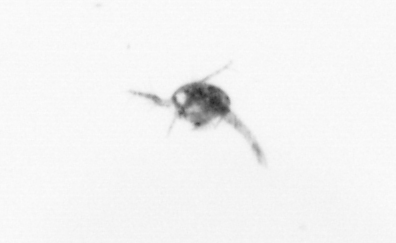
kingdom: Animalia
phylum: Arthropoda
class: Copepoda
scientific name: Copepoda
